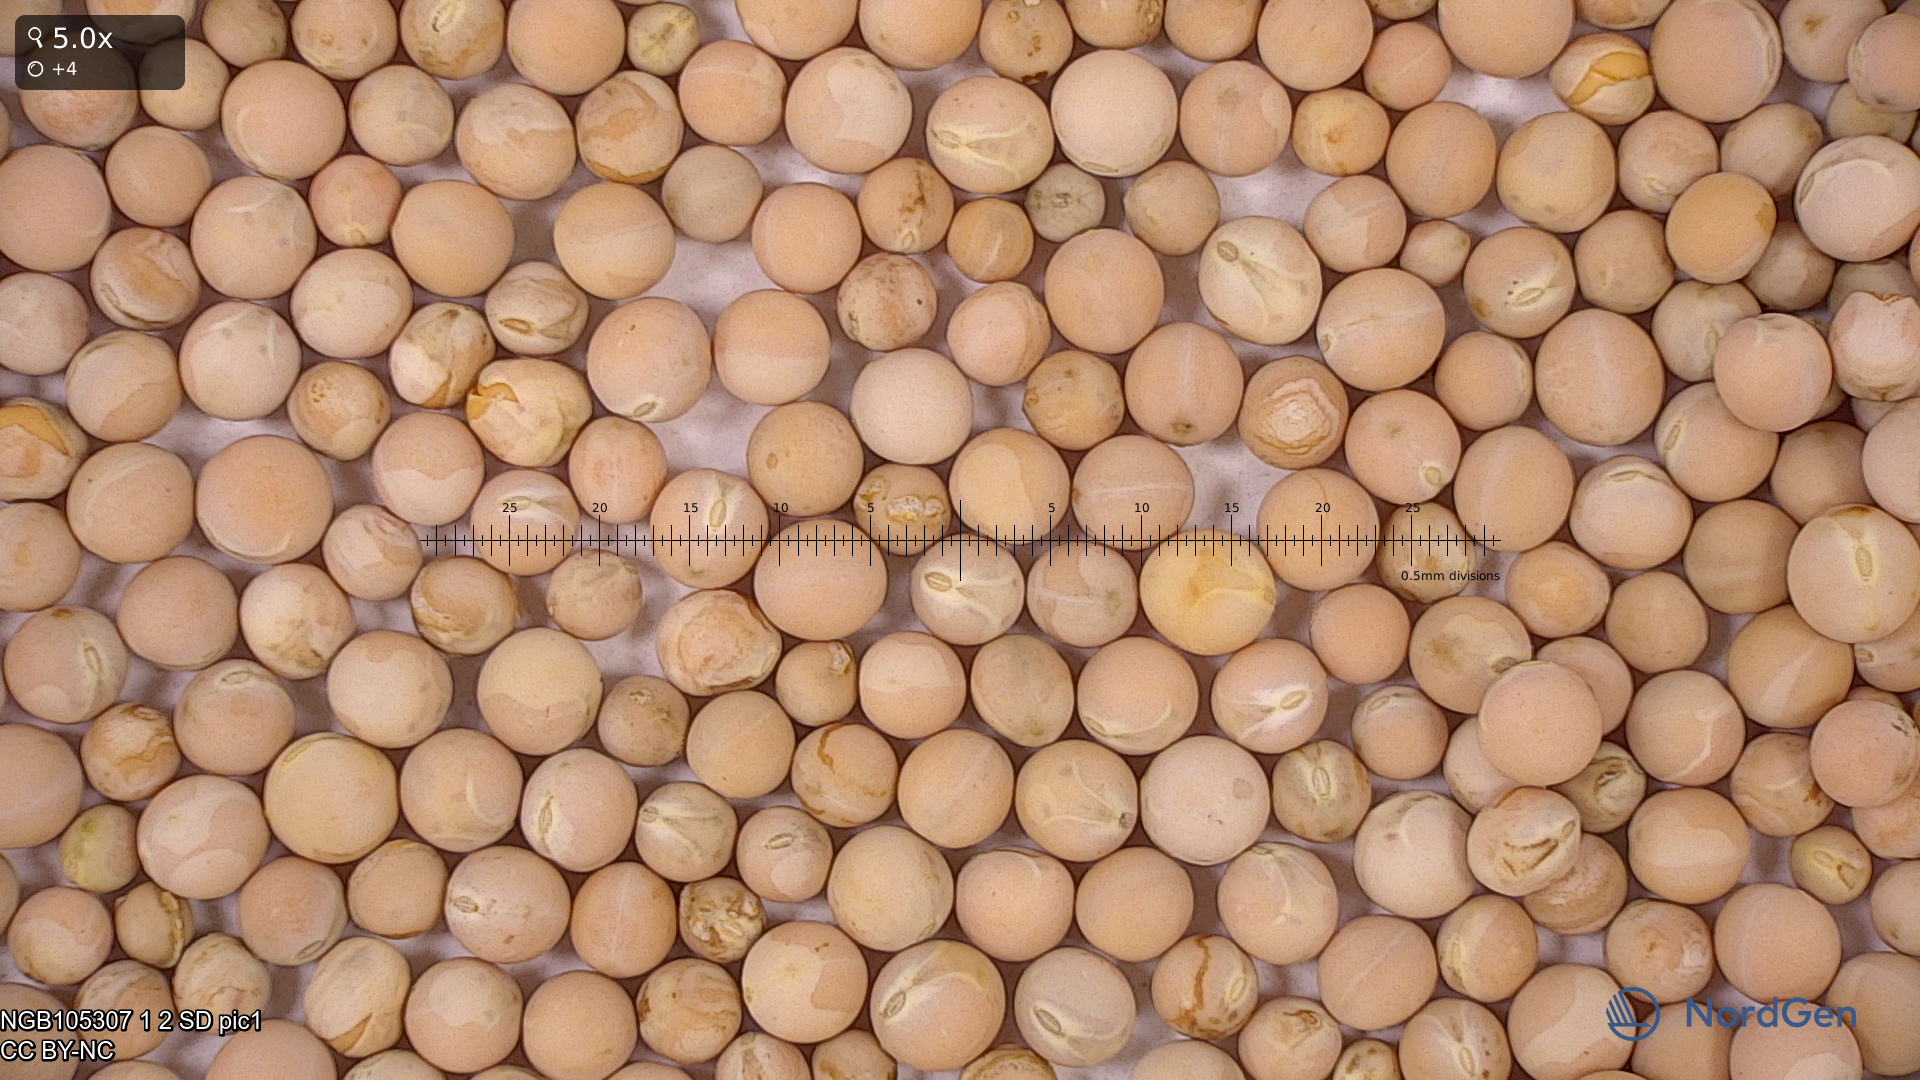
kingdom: Plantae
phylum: Tracheophyta
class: Magnoliopsida
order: Fabales
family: Fabaceae
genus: Lathyrus
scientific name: Lathyrus oleraceus
